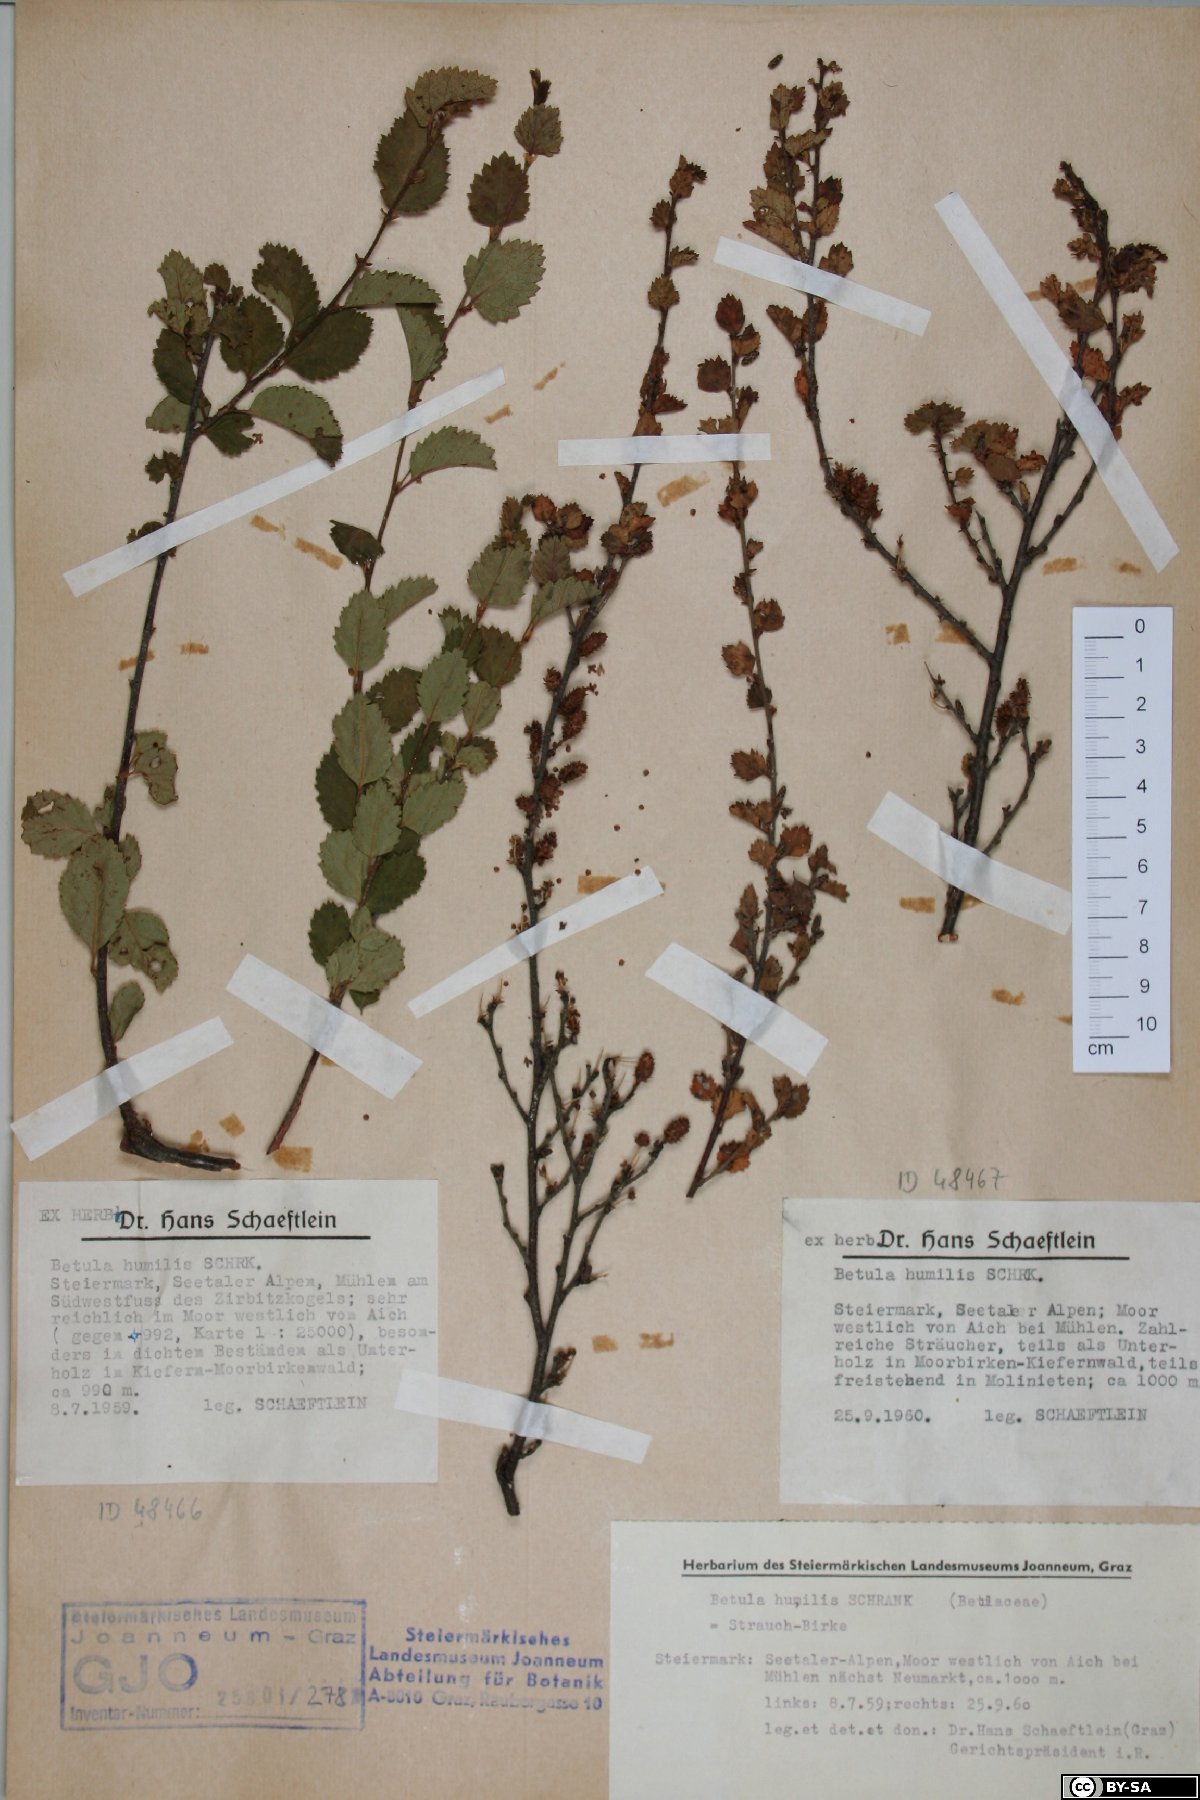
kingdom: Plantae
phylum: Tracheophyta
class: Magnoliopsida
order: Fagales
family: Betulaceae
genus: Betula
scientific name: Betula humilis
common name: Shrubby birch
